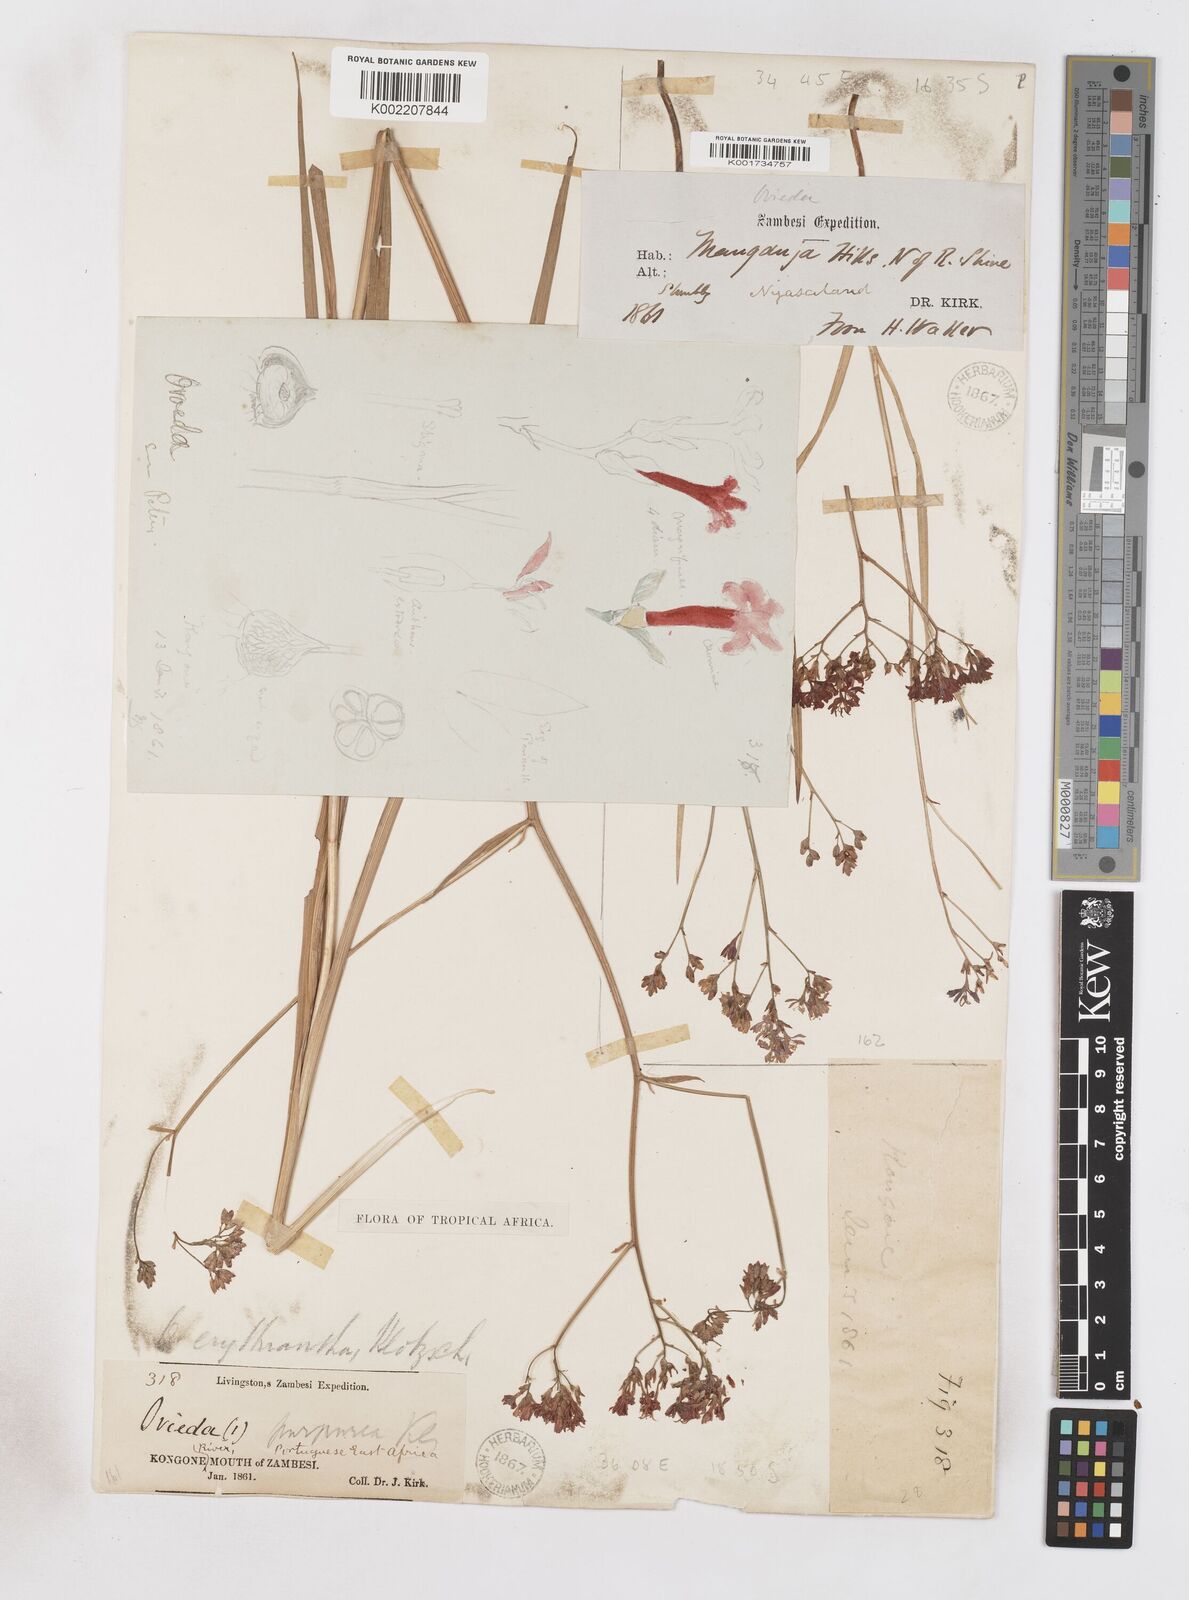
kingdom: Plantae
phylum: Tracheophyta
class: Liliopsida
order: Asparagales
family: Iridaceae
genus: Afrosolen
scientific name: Afrosolen erythranthus
